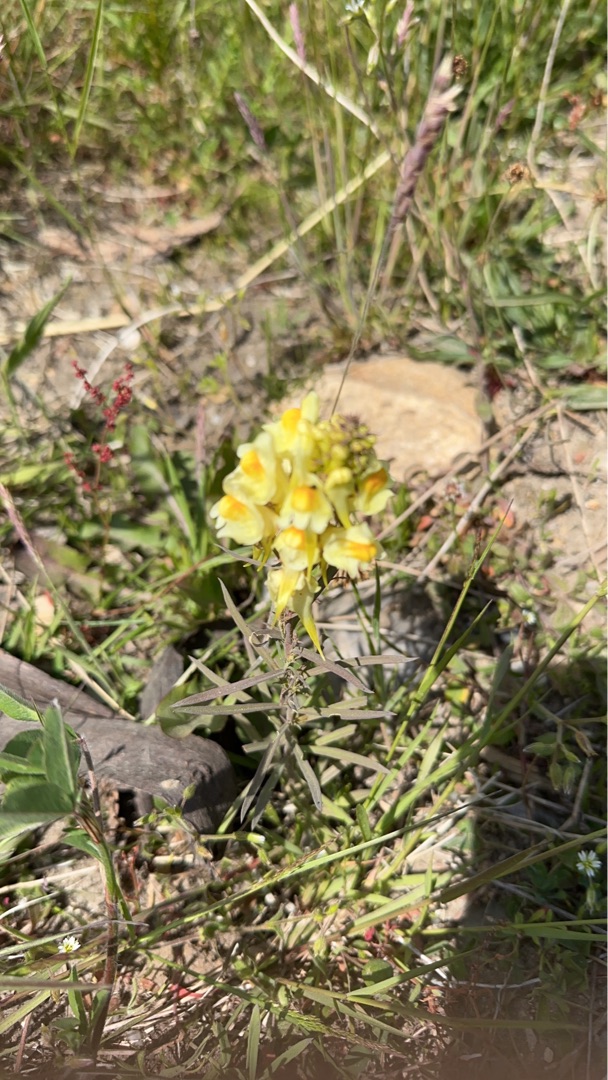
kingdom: Plantae
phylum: Tracheophyta
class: Magnoliopsida
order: Lamiales
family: Plantaginaceae
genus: Linaria
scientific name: Linaria vulgaris
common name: Almindelig torskemund
